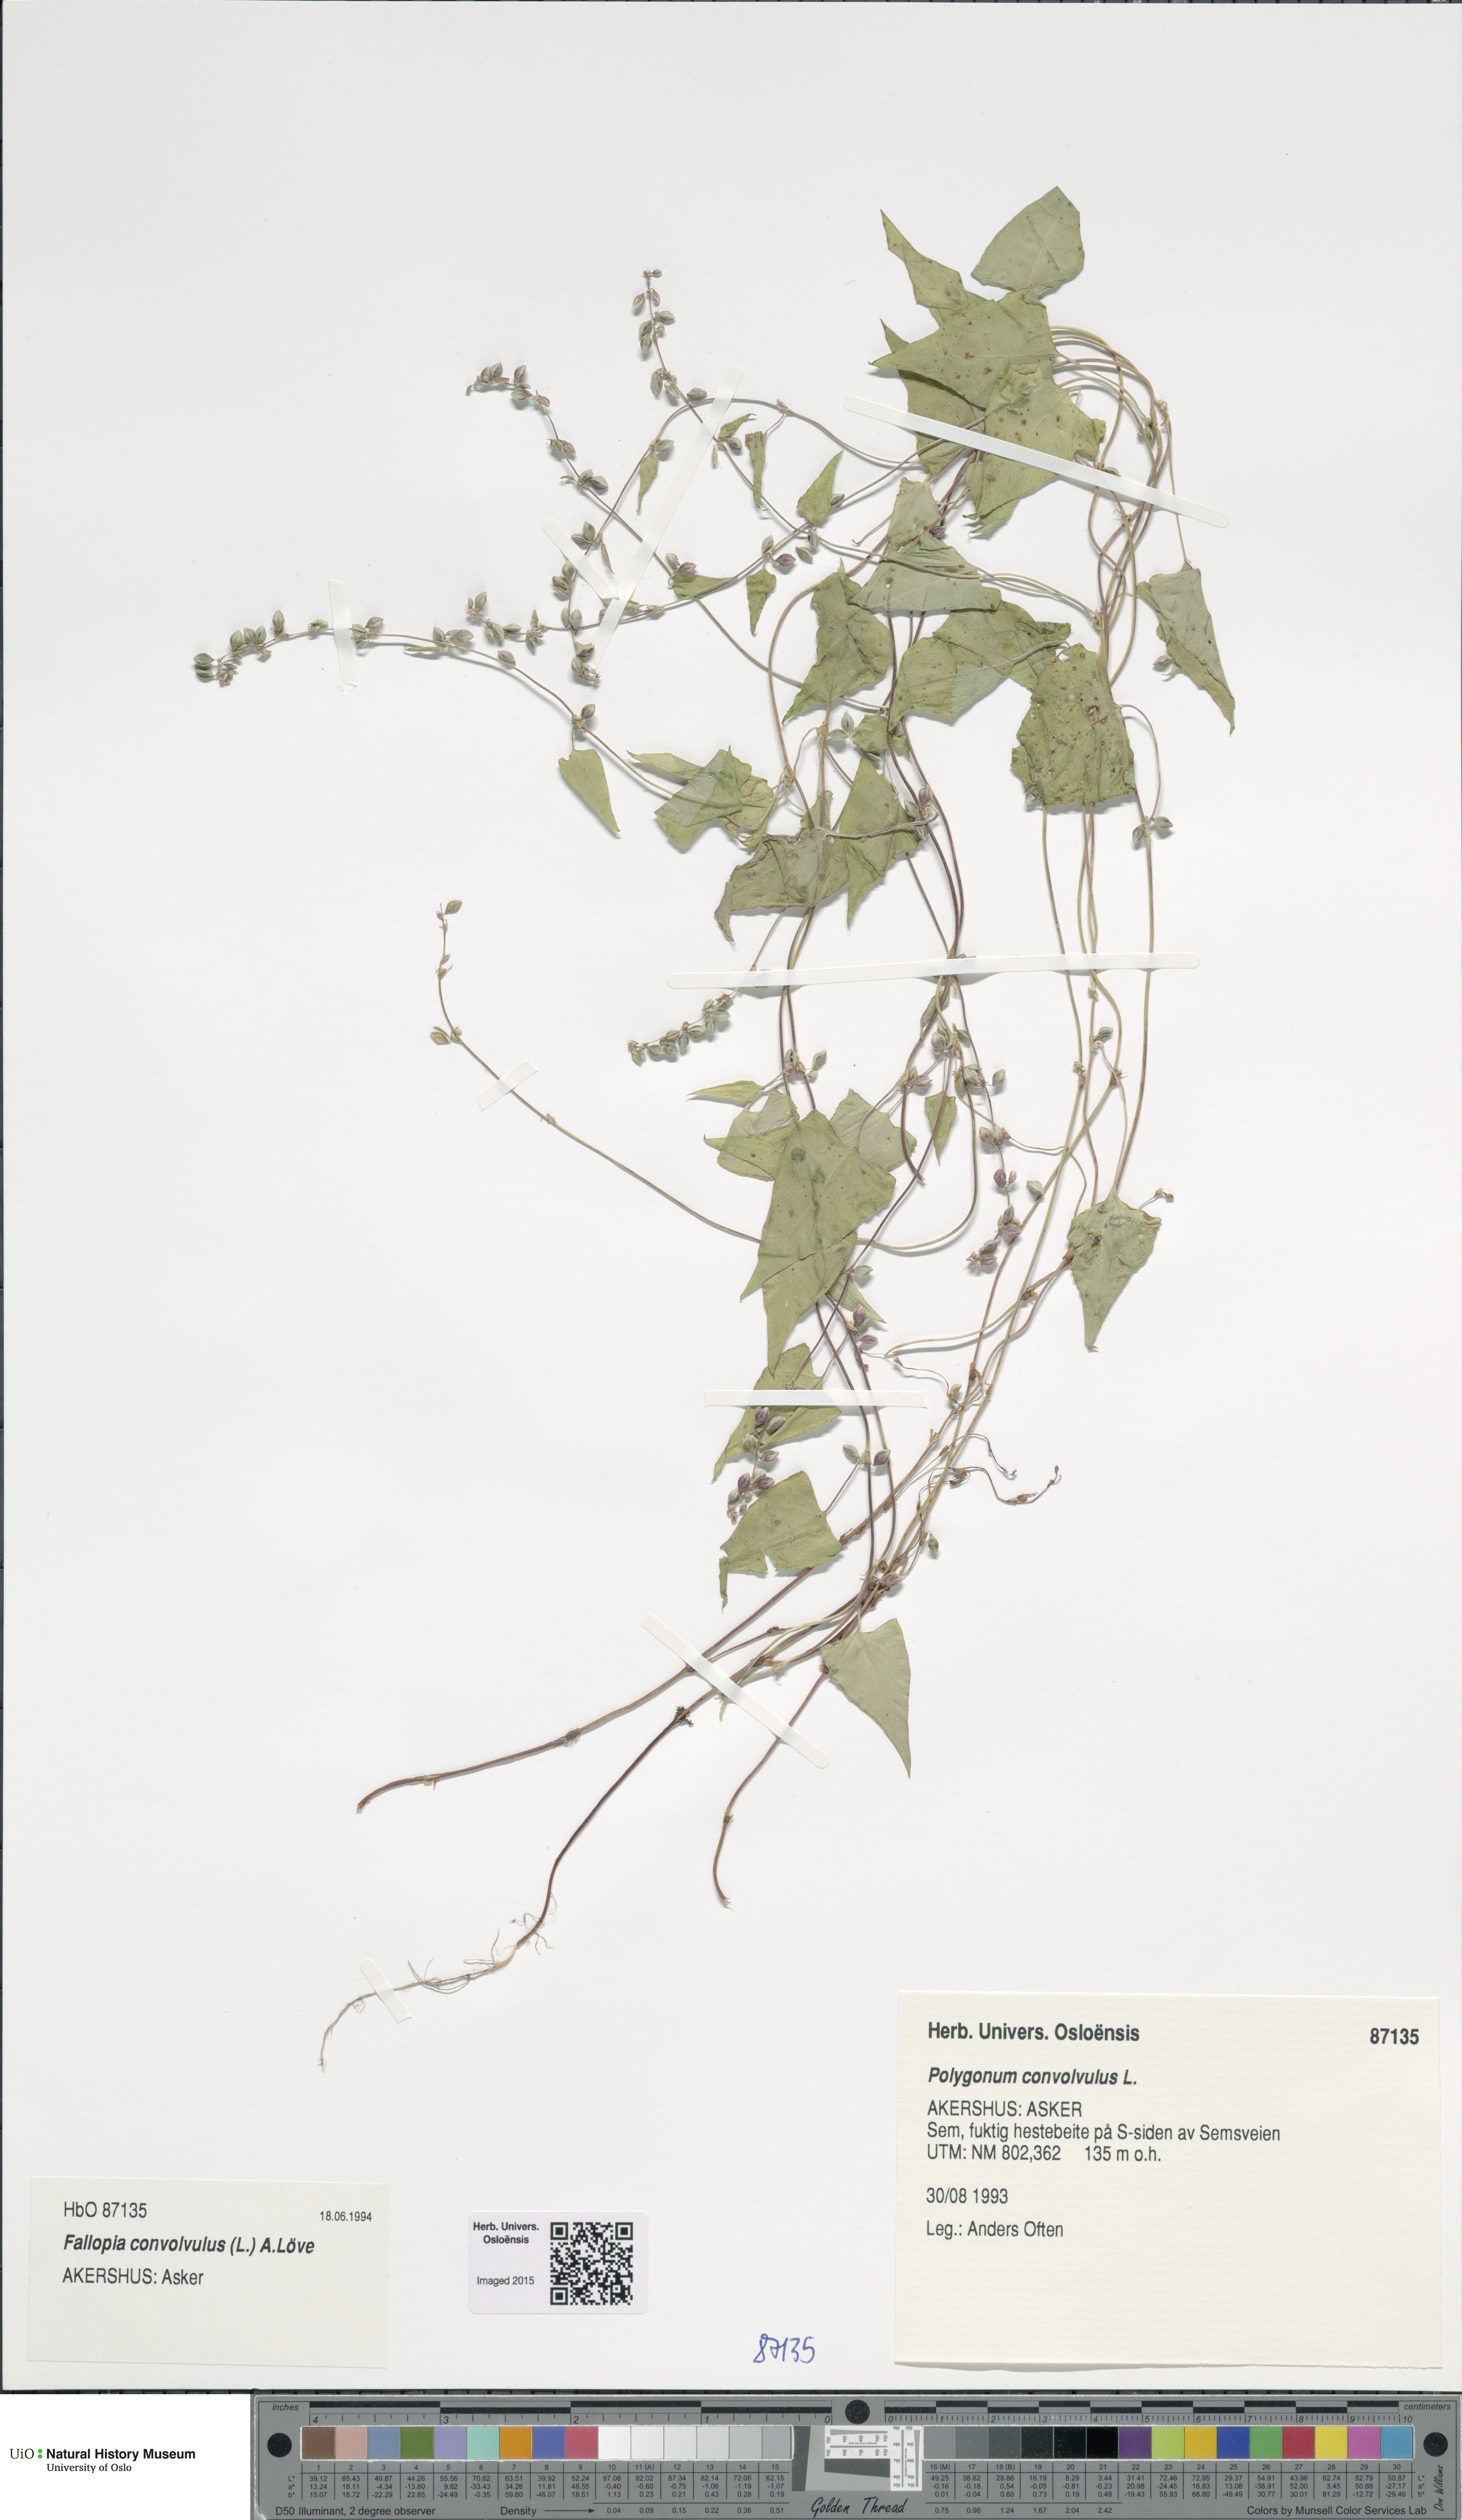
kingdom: Plantae
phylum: Tracheophyta
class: Magnoliopsida
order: Caryophyllales
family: Polygonaceae
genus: Fallopia
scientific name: Fallopia convolvulus
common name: Black bindweed
